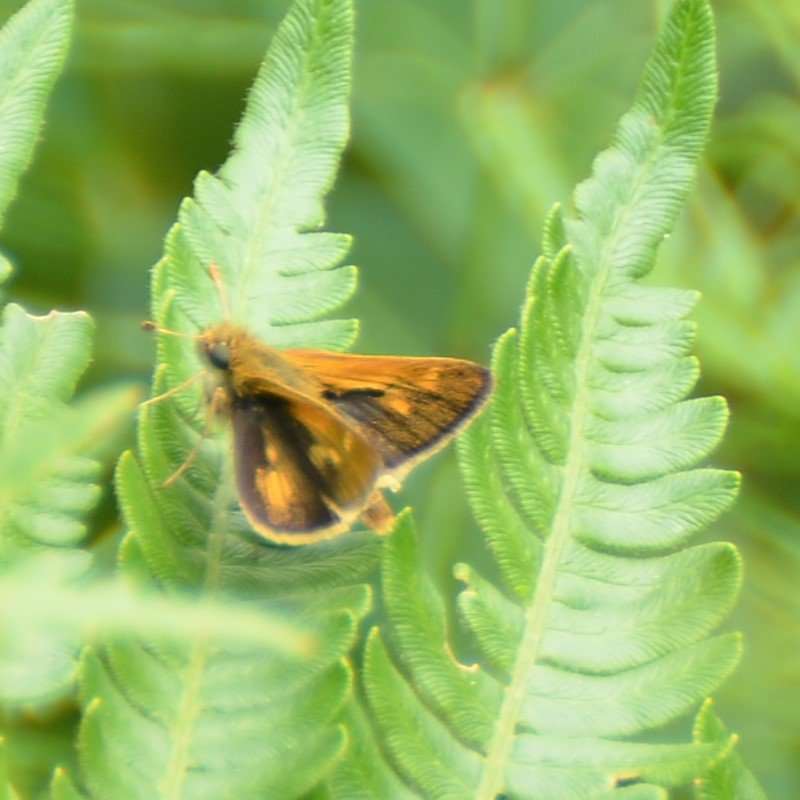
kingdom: Animalia
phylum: Arthropoda
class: Insecta
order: Lepidoptera
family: Hesperiidae
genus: Polites
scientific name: Polites themistocles
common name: Tawny-edged Skipper
